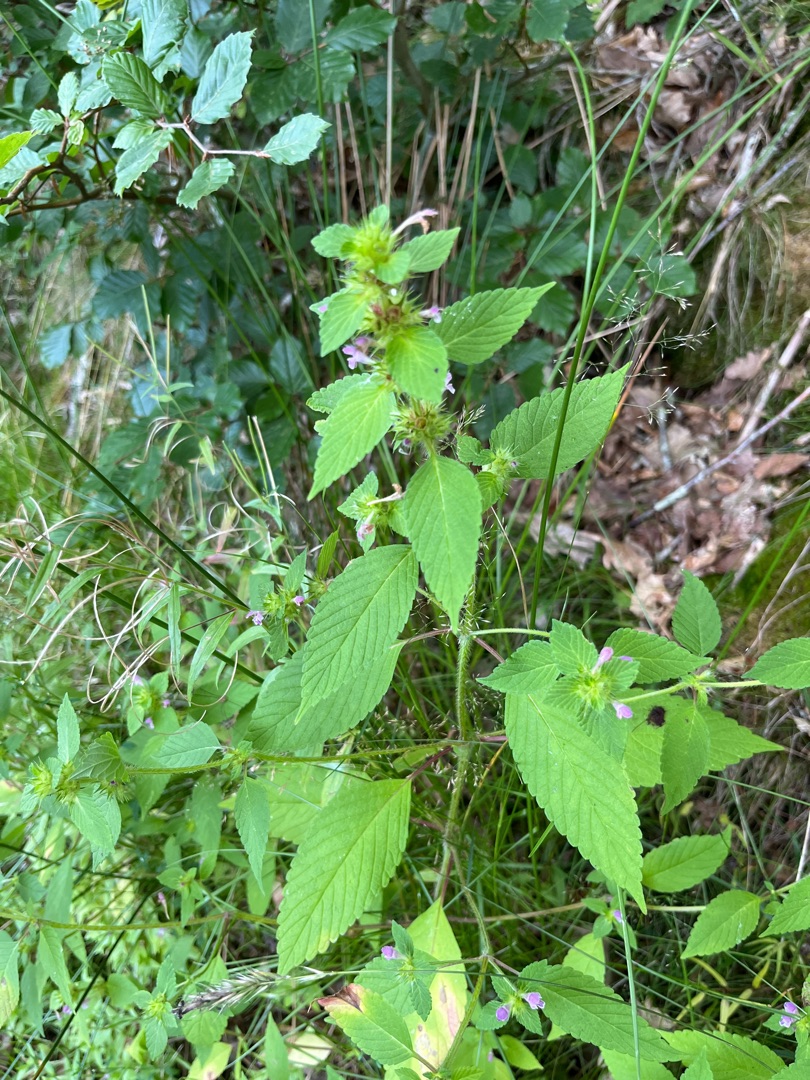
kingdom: Plantae
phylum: Tracheophyta
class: Magnoliopsida
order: Lamiales
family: Lamiaceae
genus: Galeopsis
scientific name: Galeopsis bifida
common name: Skov-hanekro
